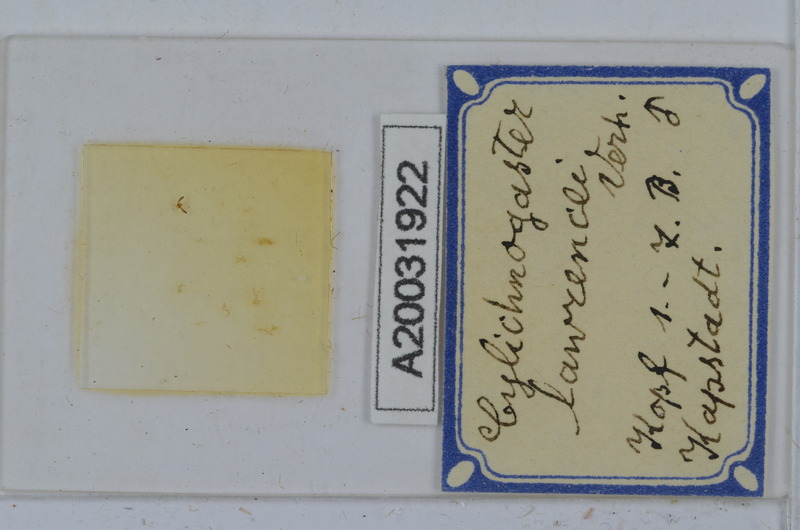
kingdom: Animalia
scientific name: Animalia
